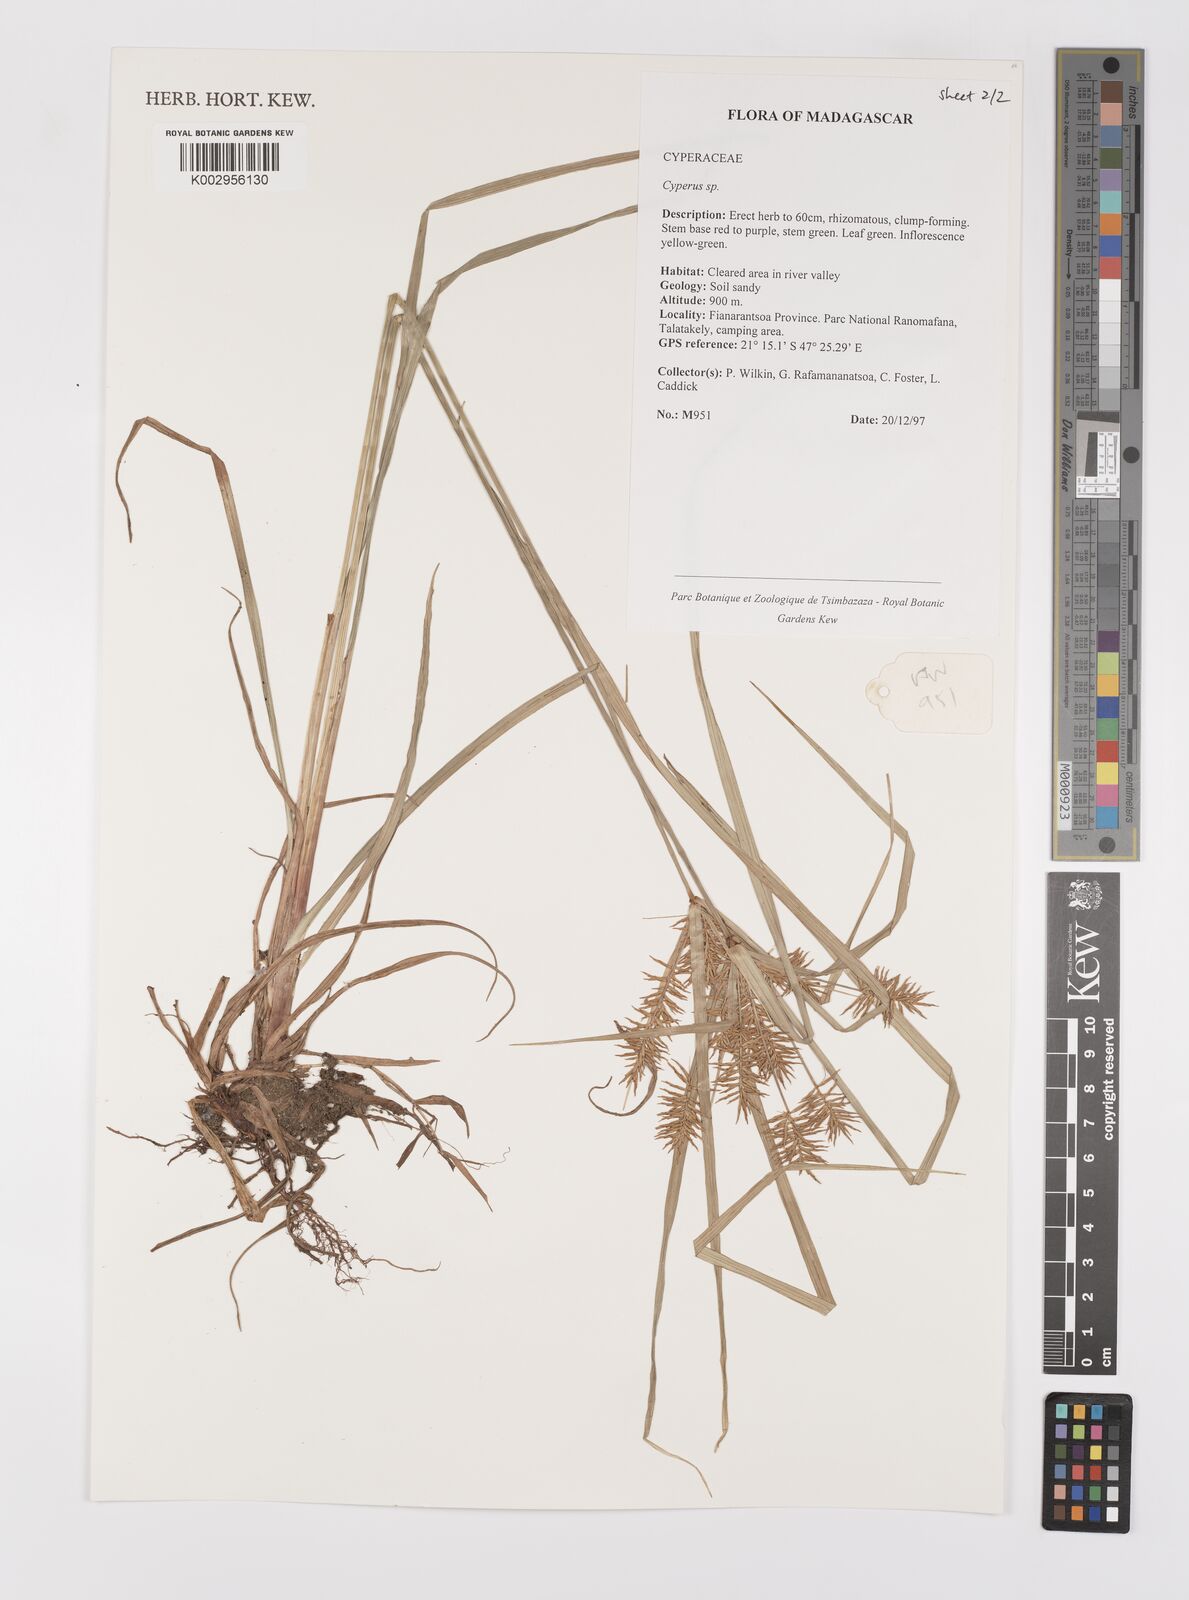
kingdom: Plantae
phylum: Tracheophyta
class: Liliopsida
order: Poales
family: Cyperaceae
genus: Cyperus
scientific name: Cyperus
